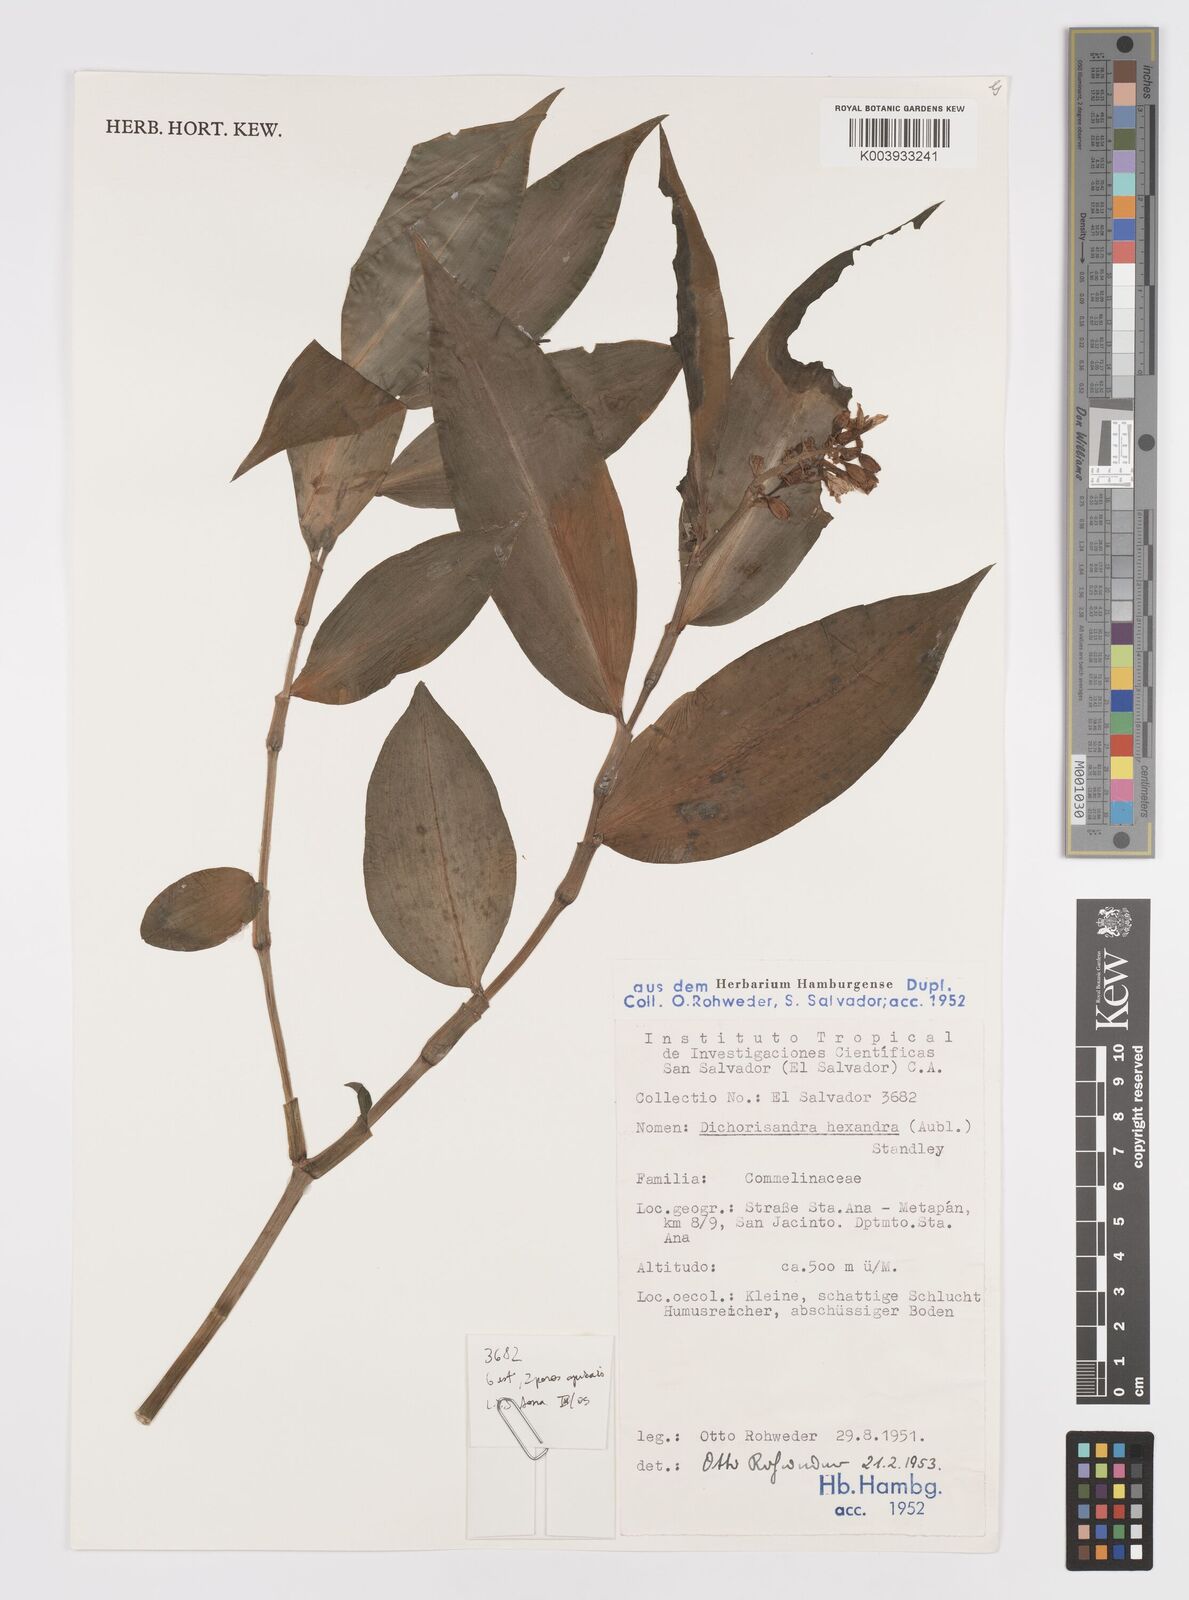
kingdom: Plantae
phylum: Tracheophyta
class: Liliopsida
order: Commelinales
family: Commelinaceae
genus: Dichorisandra
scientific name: Dichorisandra hexandra
